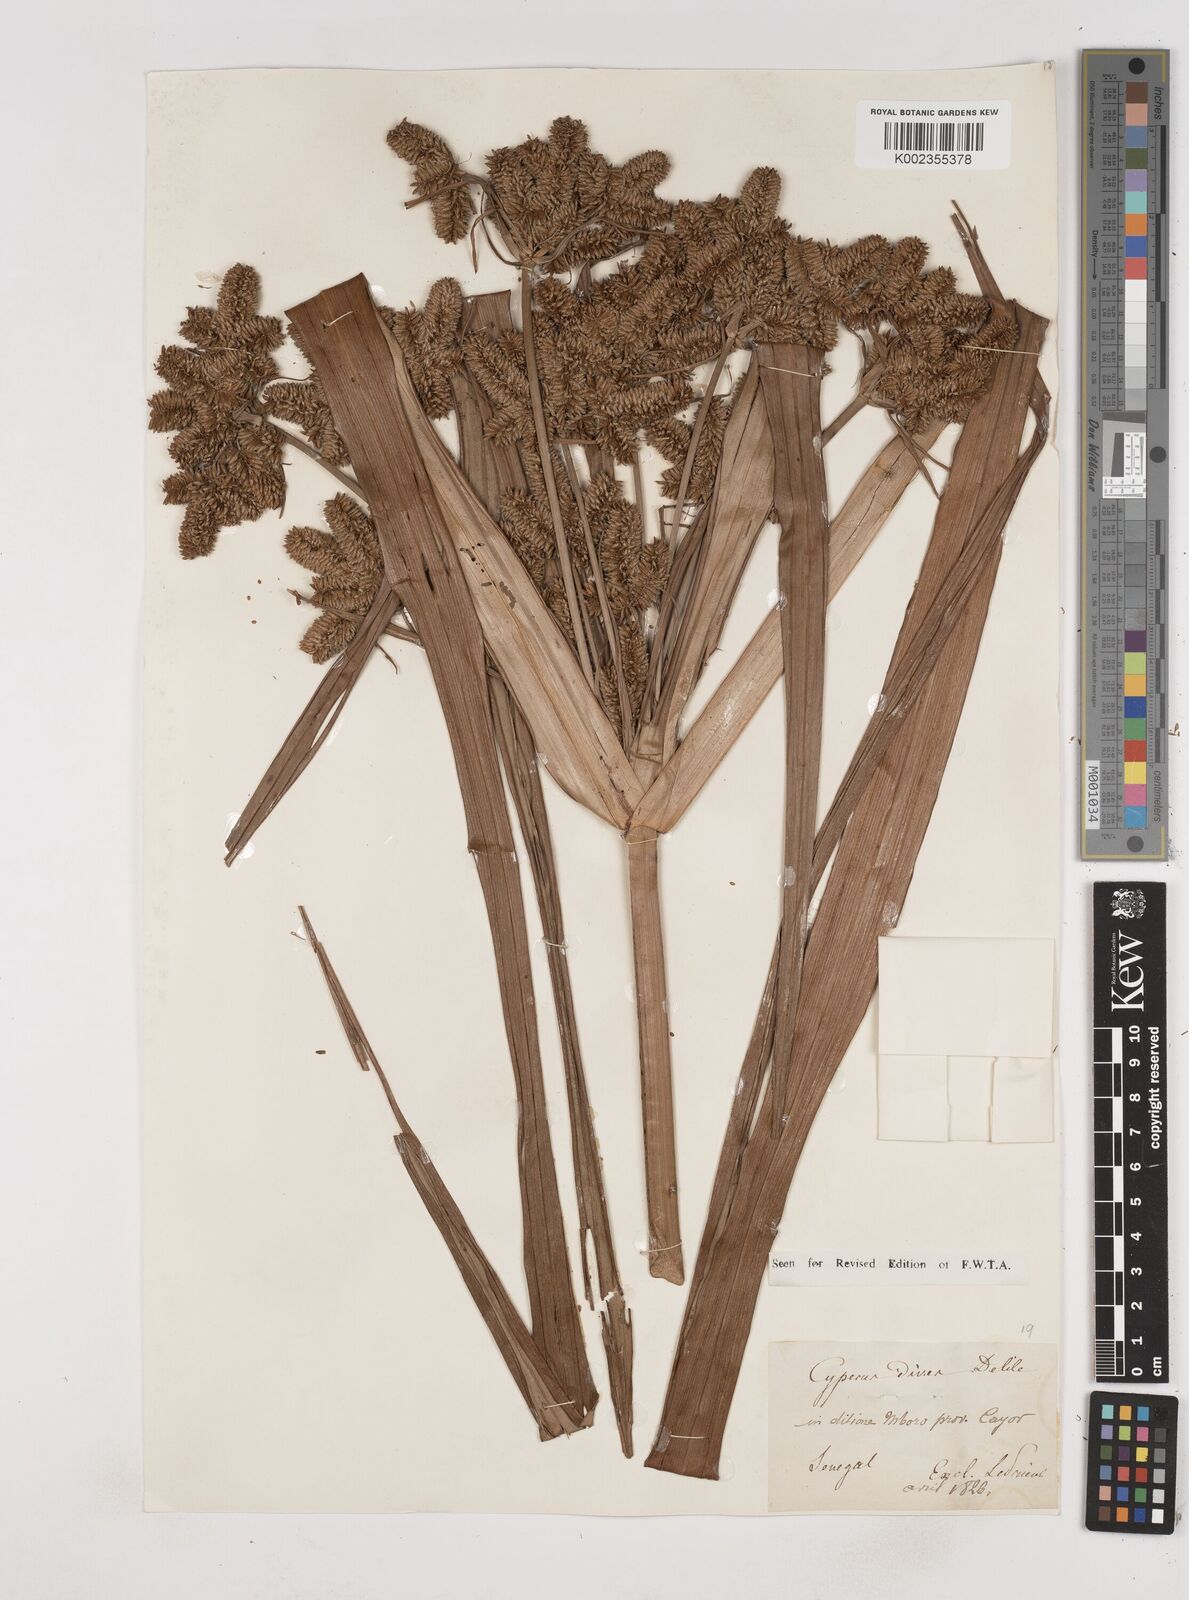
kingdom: Plantae
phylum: Tracheophyta
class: Liliopsida
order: Poales
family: Cyperaceae
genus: Cyperus
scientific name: Cyperus dives
